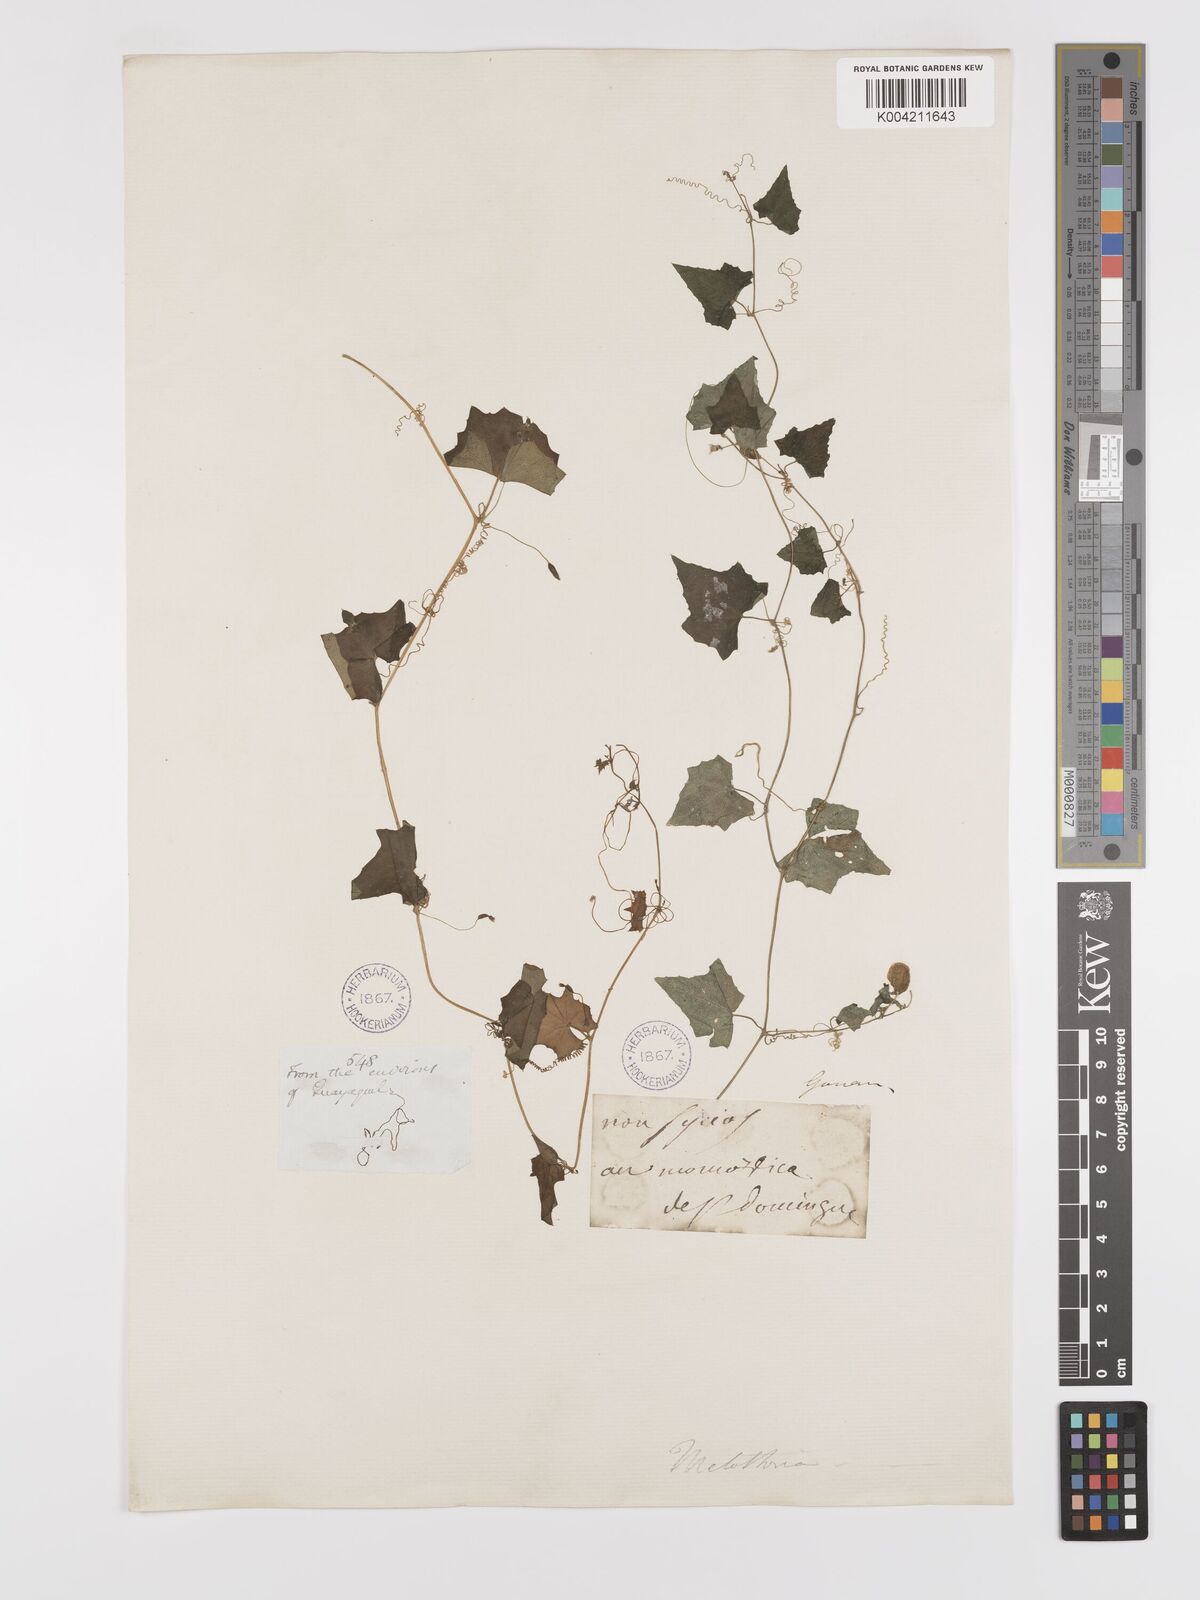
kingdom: Plantae
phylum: Tracheophyta
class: Magnoliopsida
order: Cucurbitales
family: Cucurbitaceae
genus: Melothria
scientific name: Melothria
